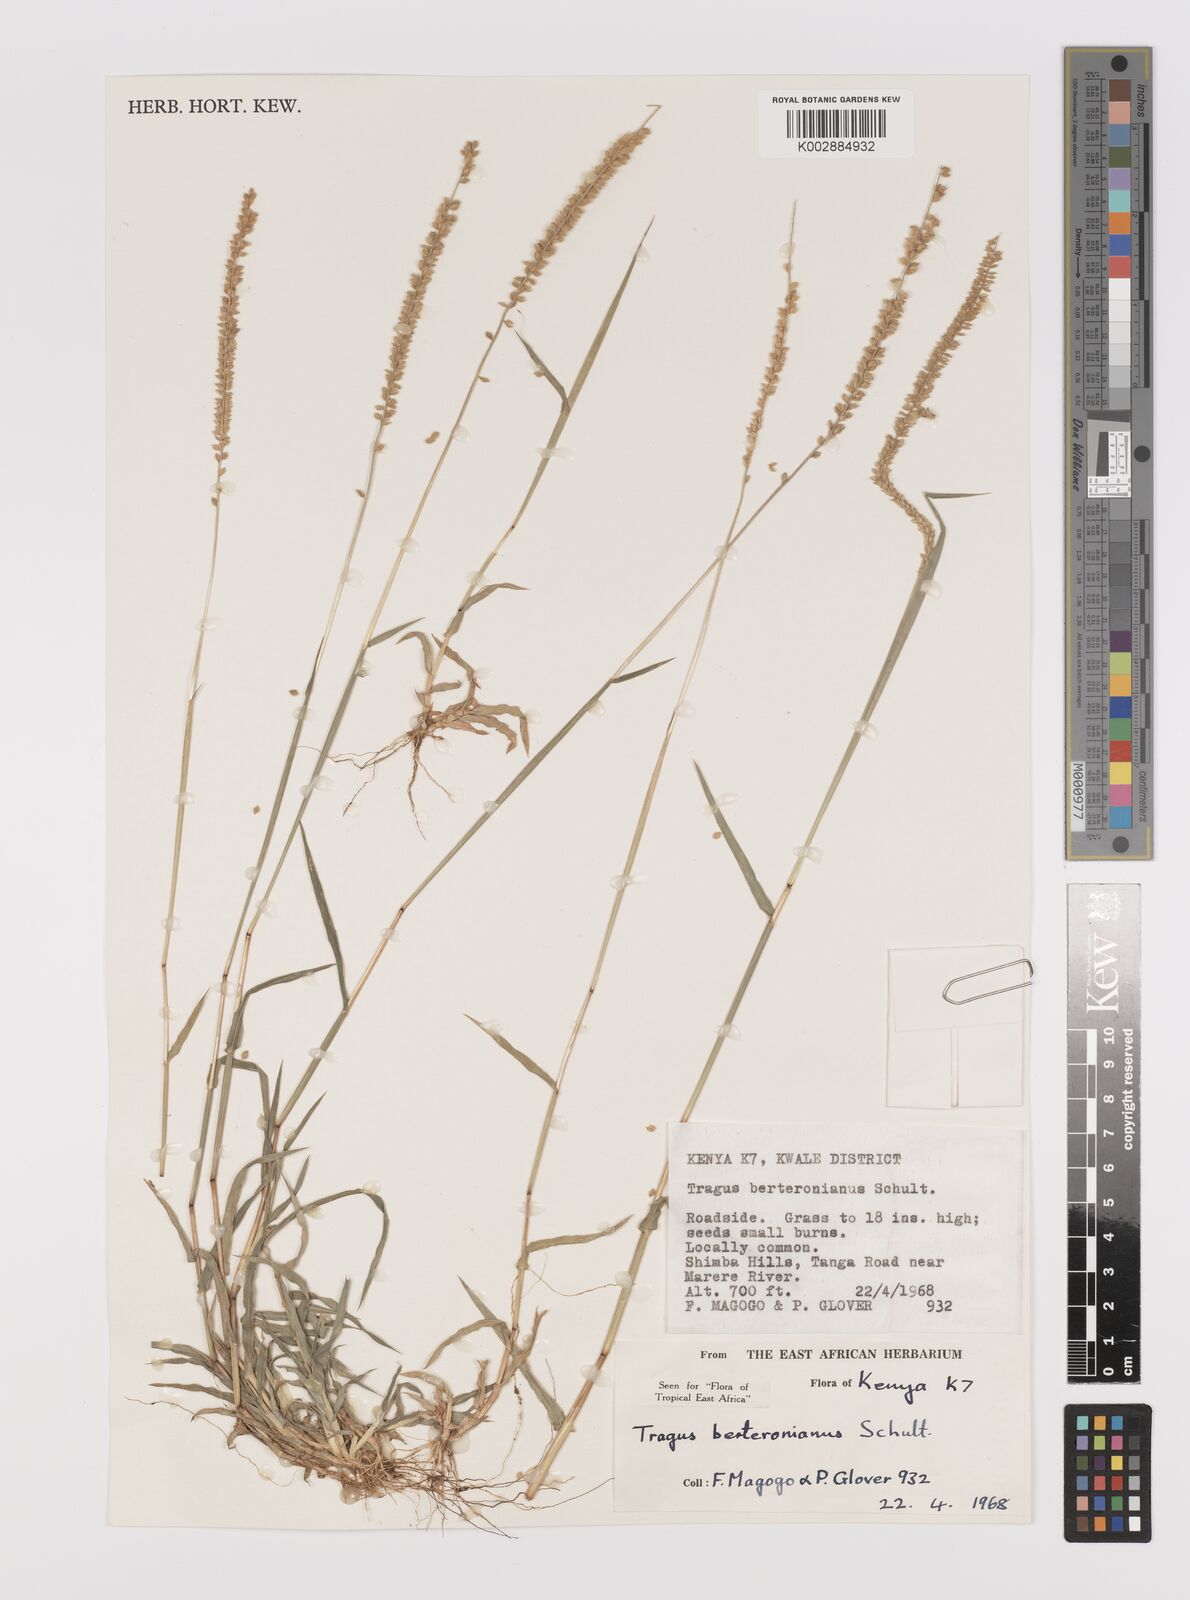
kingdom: Plantae
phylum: Tracheophyta
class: Liliopsida
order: Poales
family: Poaceae
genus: Tragus
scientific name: Tragus berteronianus
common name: African bur-grass
